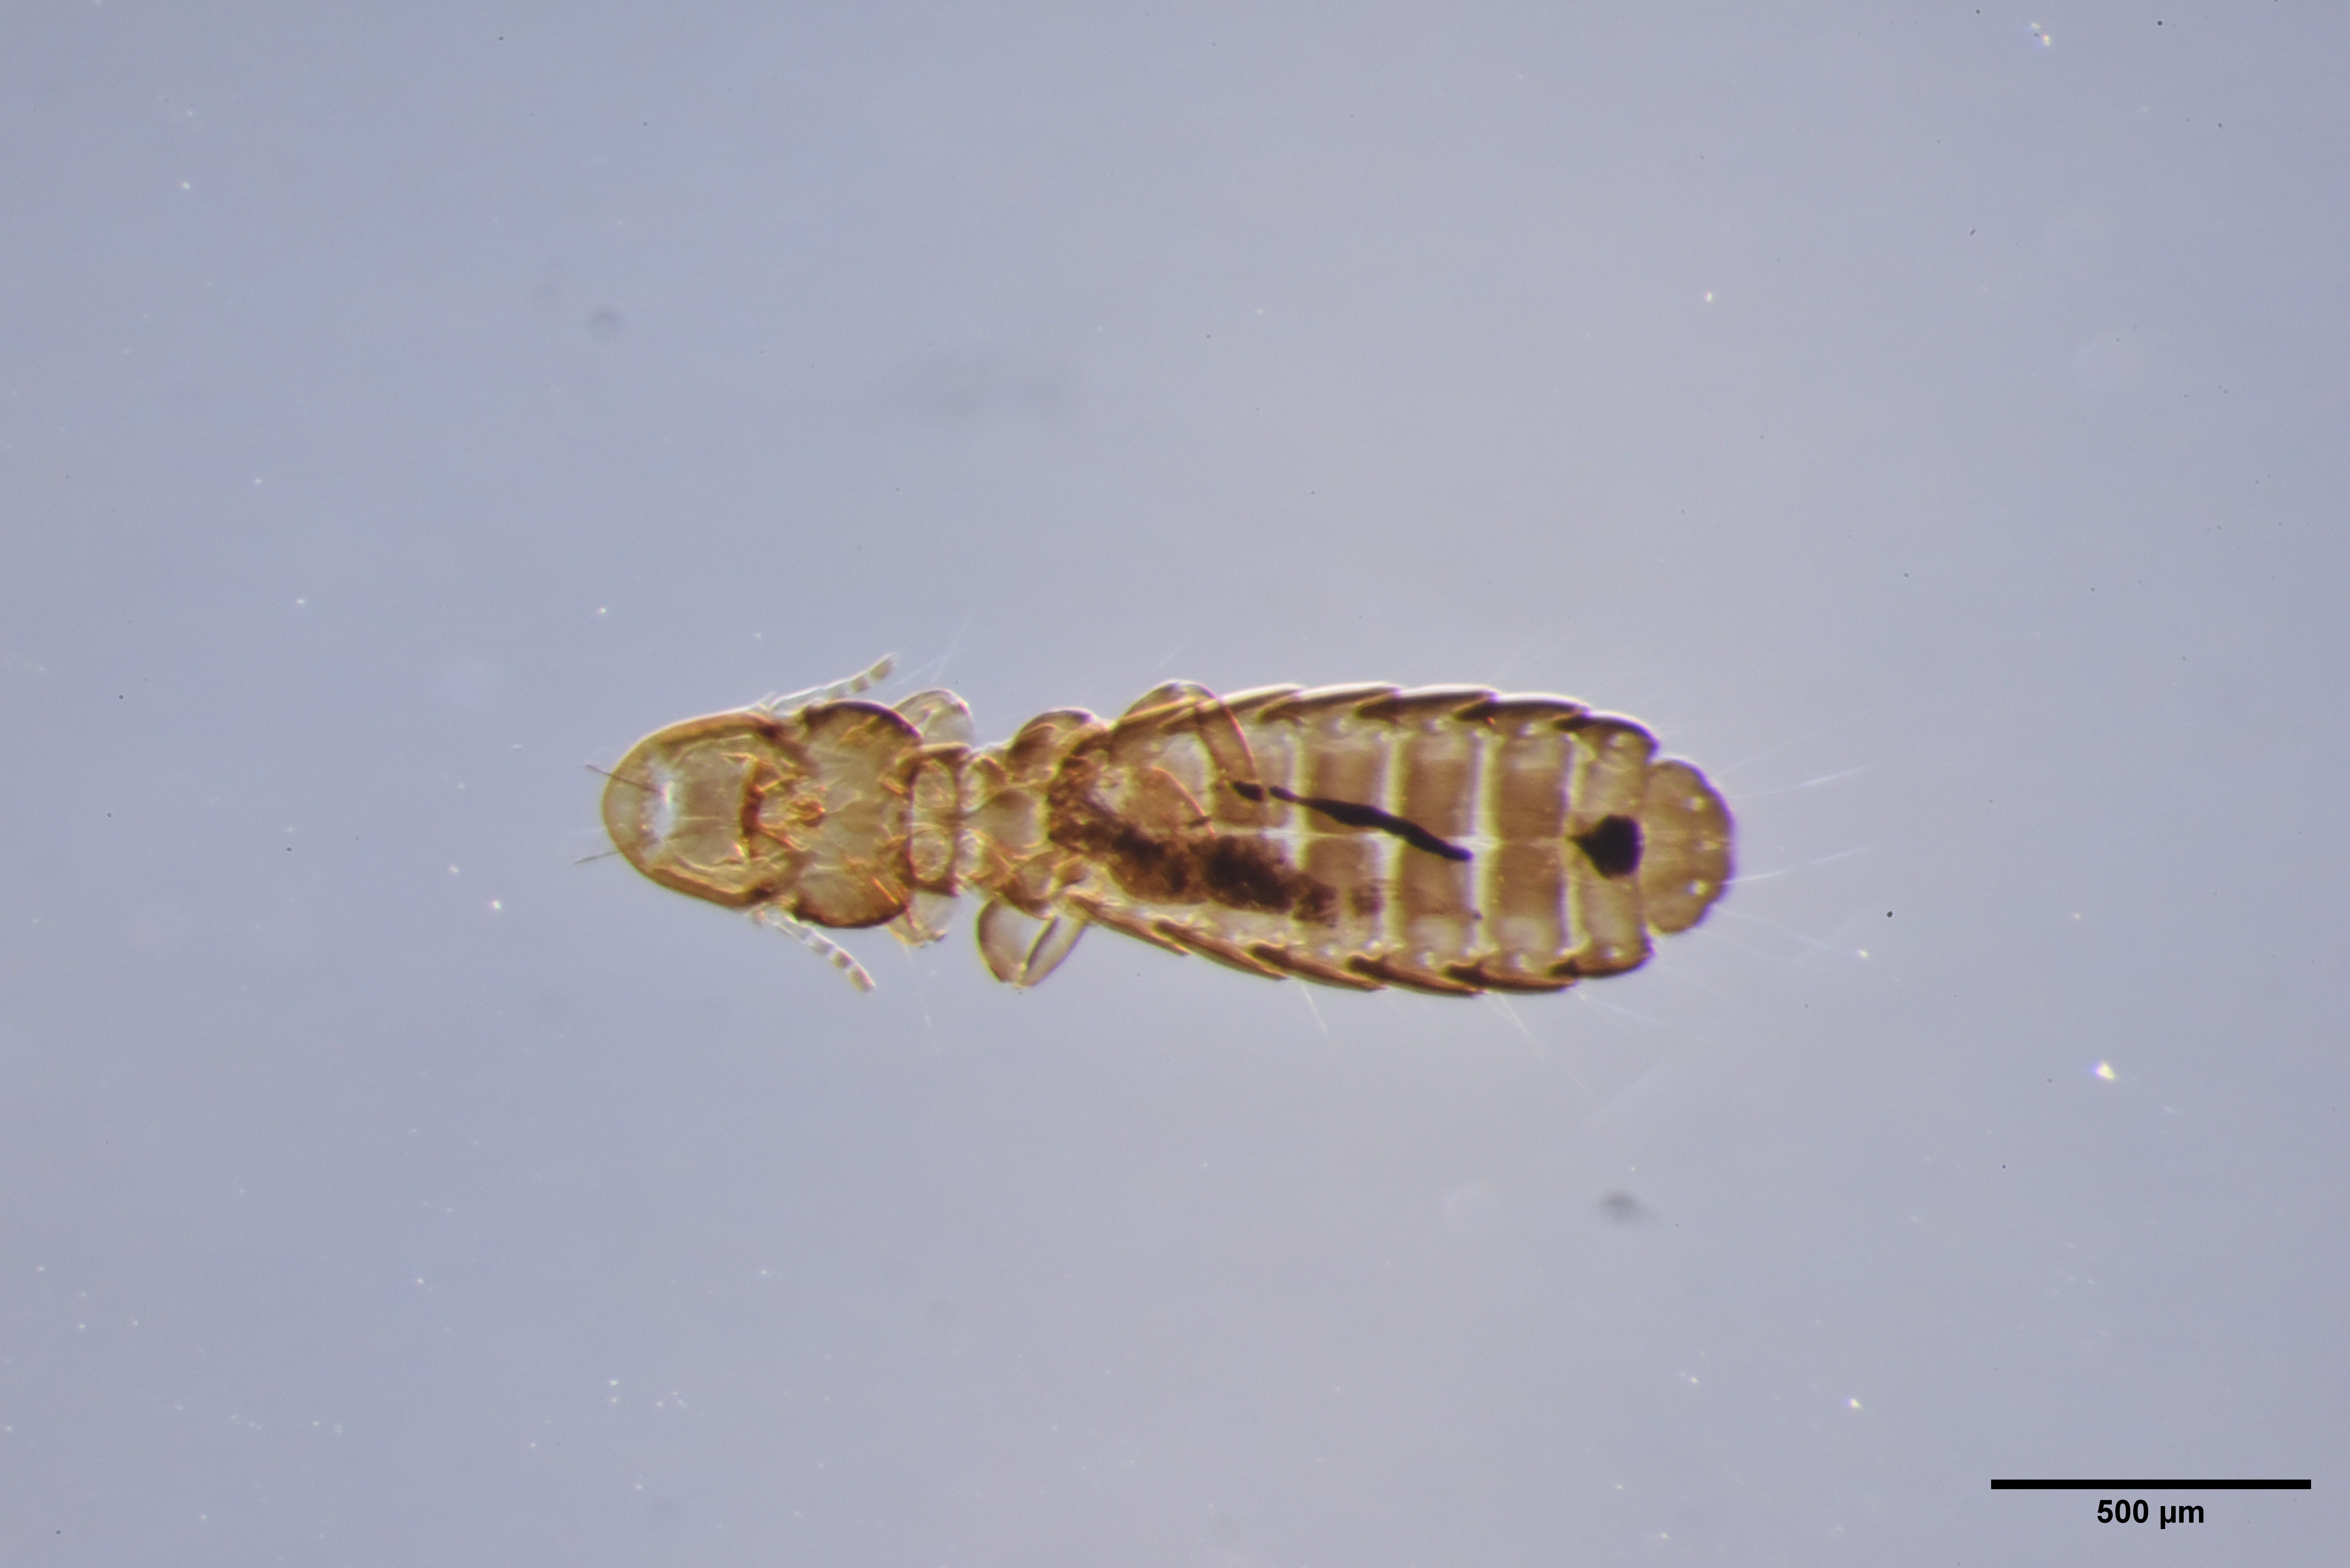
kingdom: Animalia
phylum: Arthropoda
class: Insecta
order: Psocodea
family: Philopteridae
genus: Cuculicola
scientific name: Cuculicola latirostris
